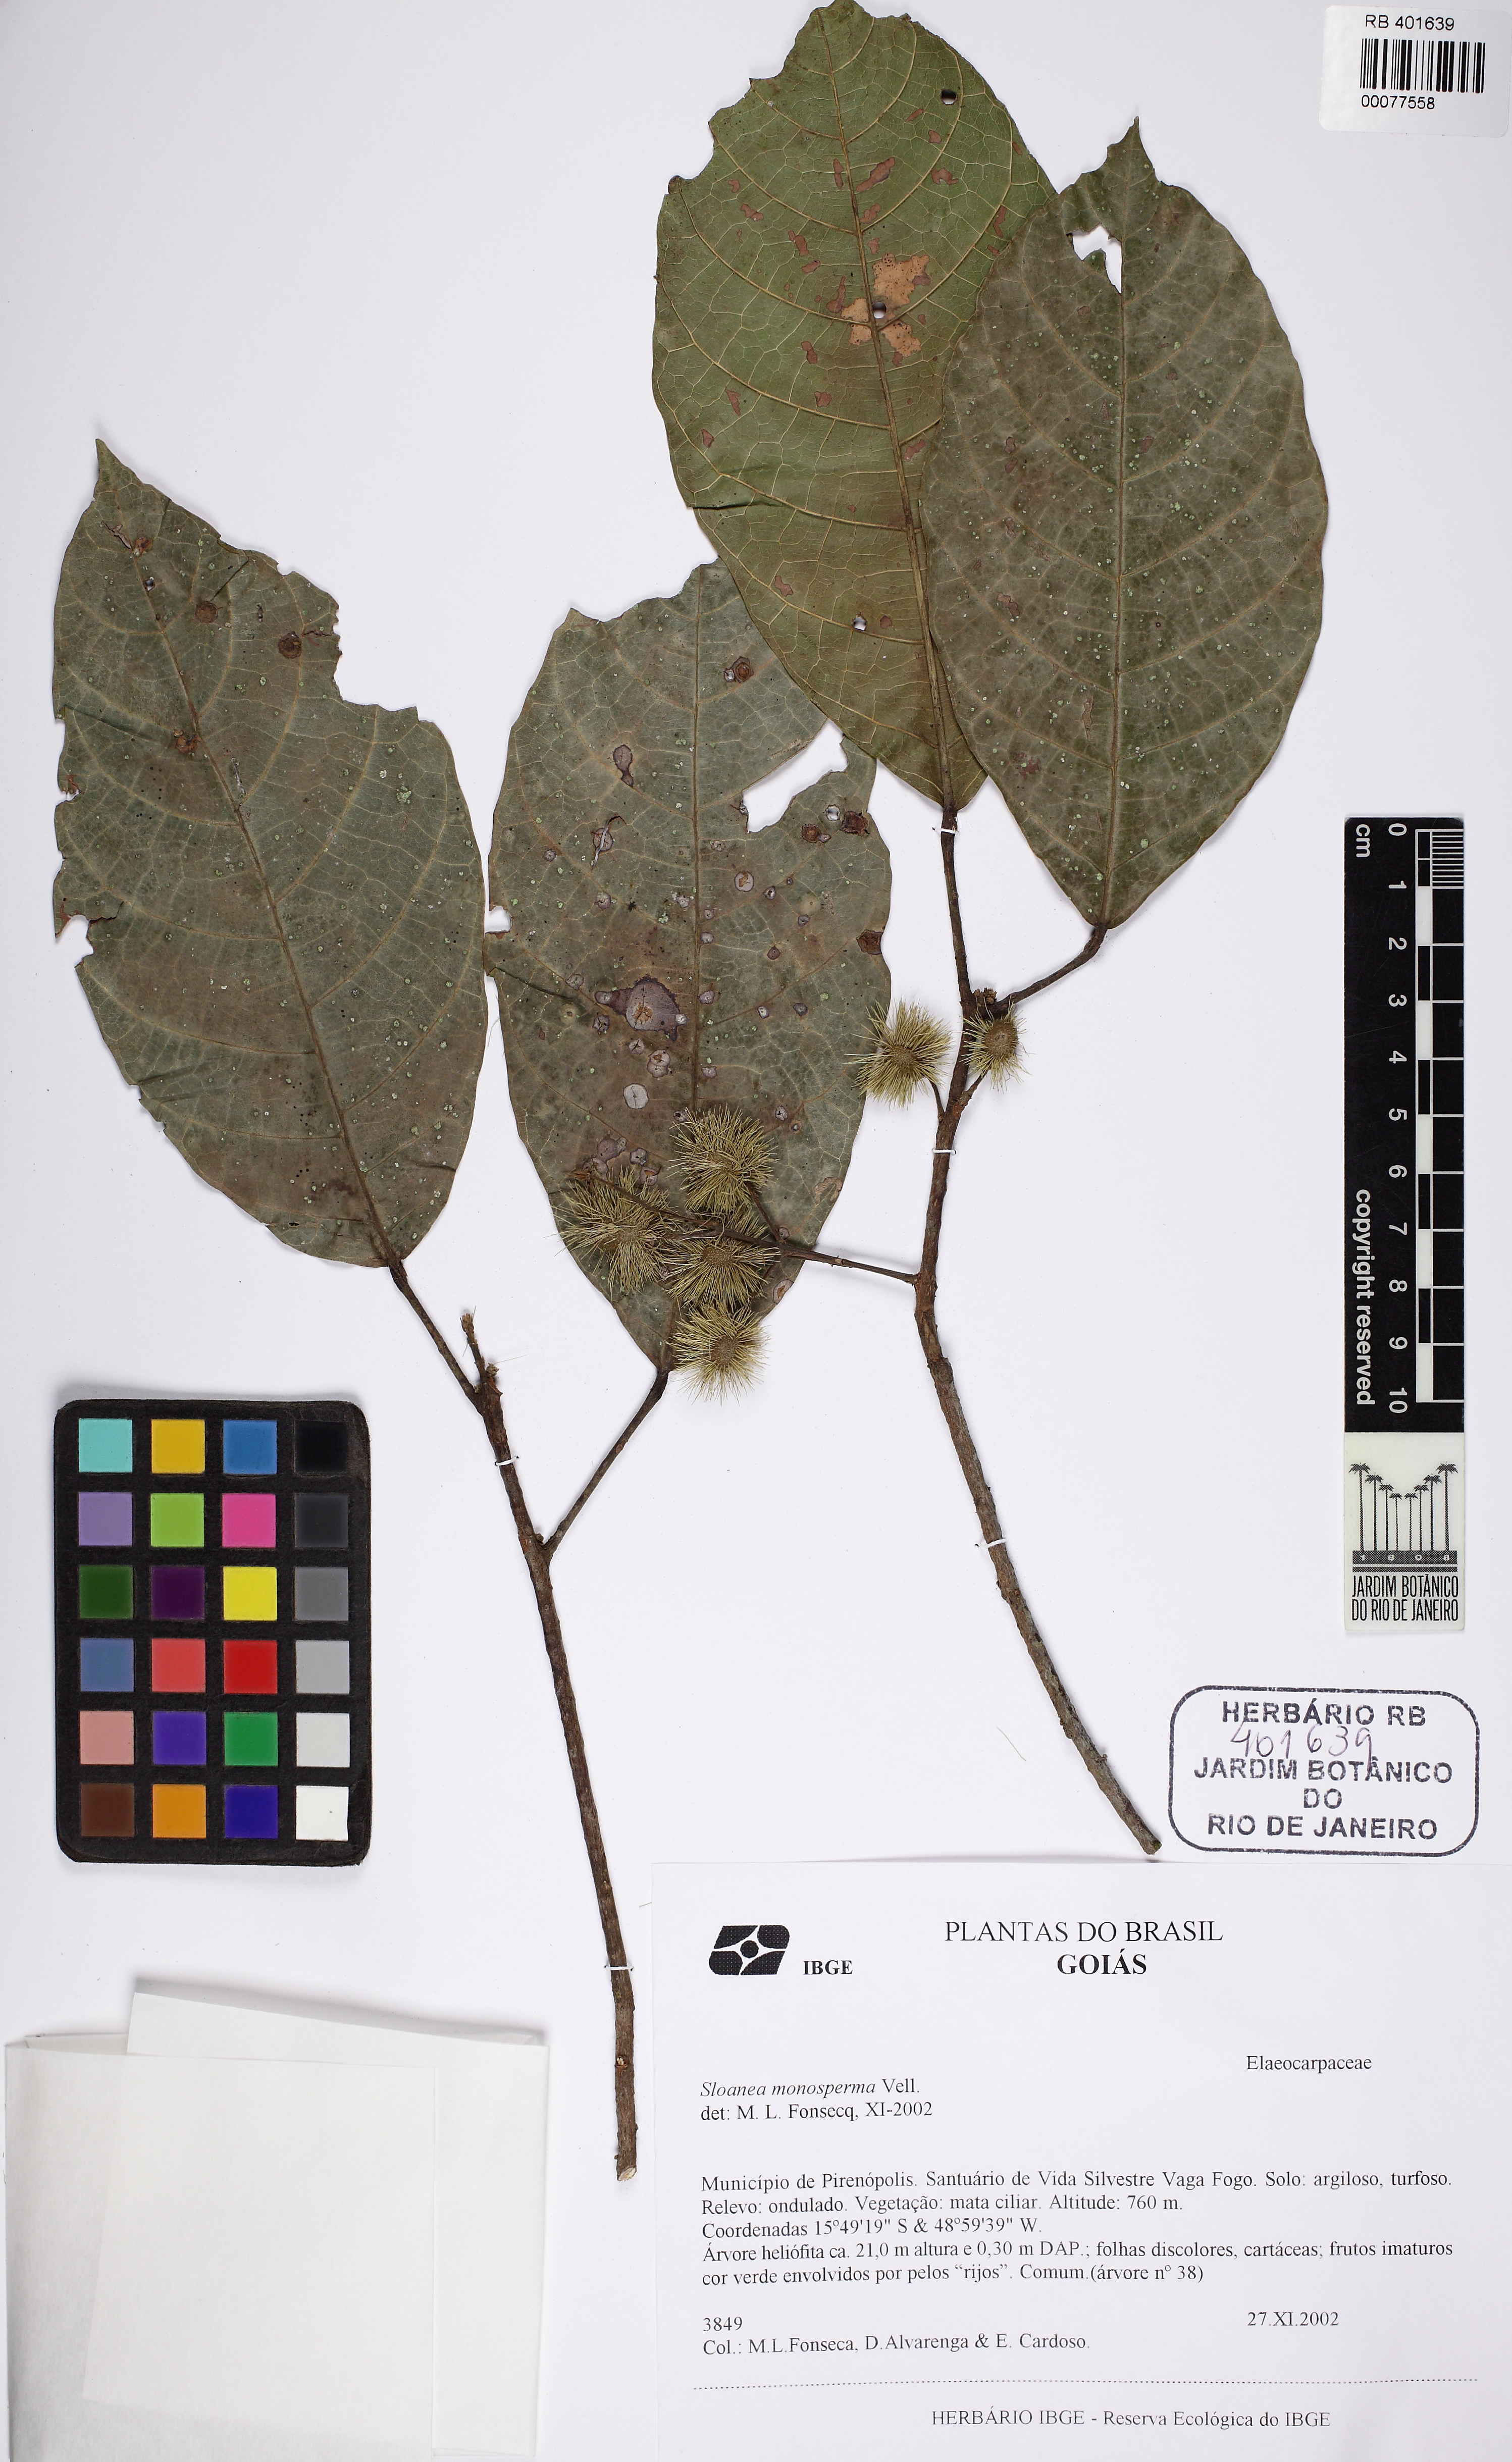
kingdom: Plantae
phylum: Tracheophyta
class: Magnoliopsida
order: Oxalidales
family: Elaeocarpaceae
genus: Sloanea
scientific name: Sloanea hirsuta
